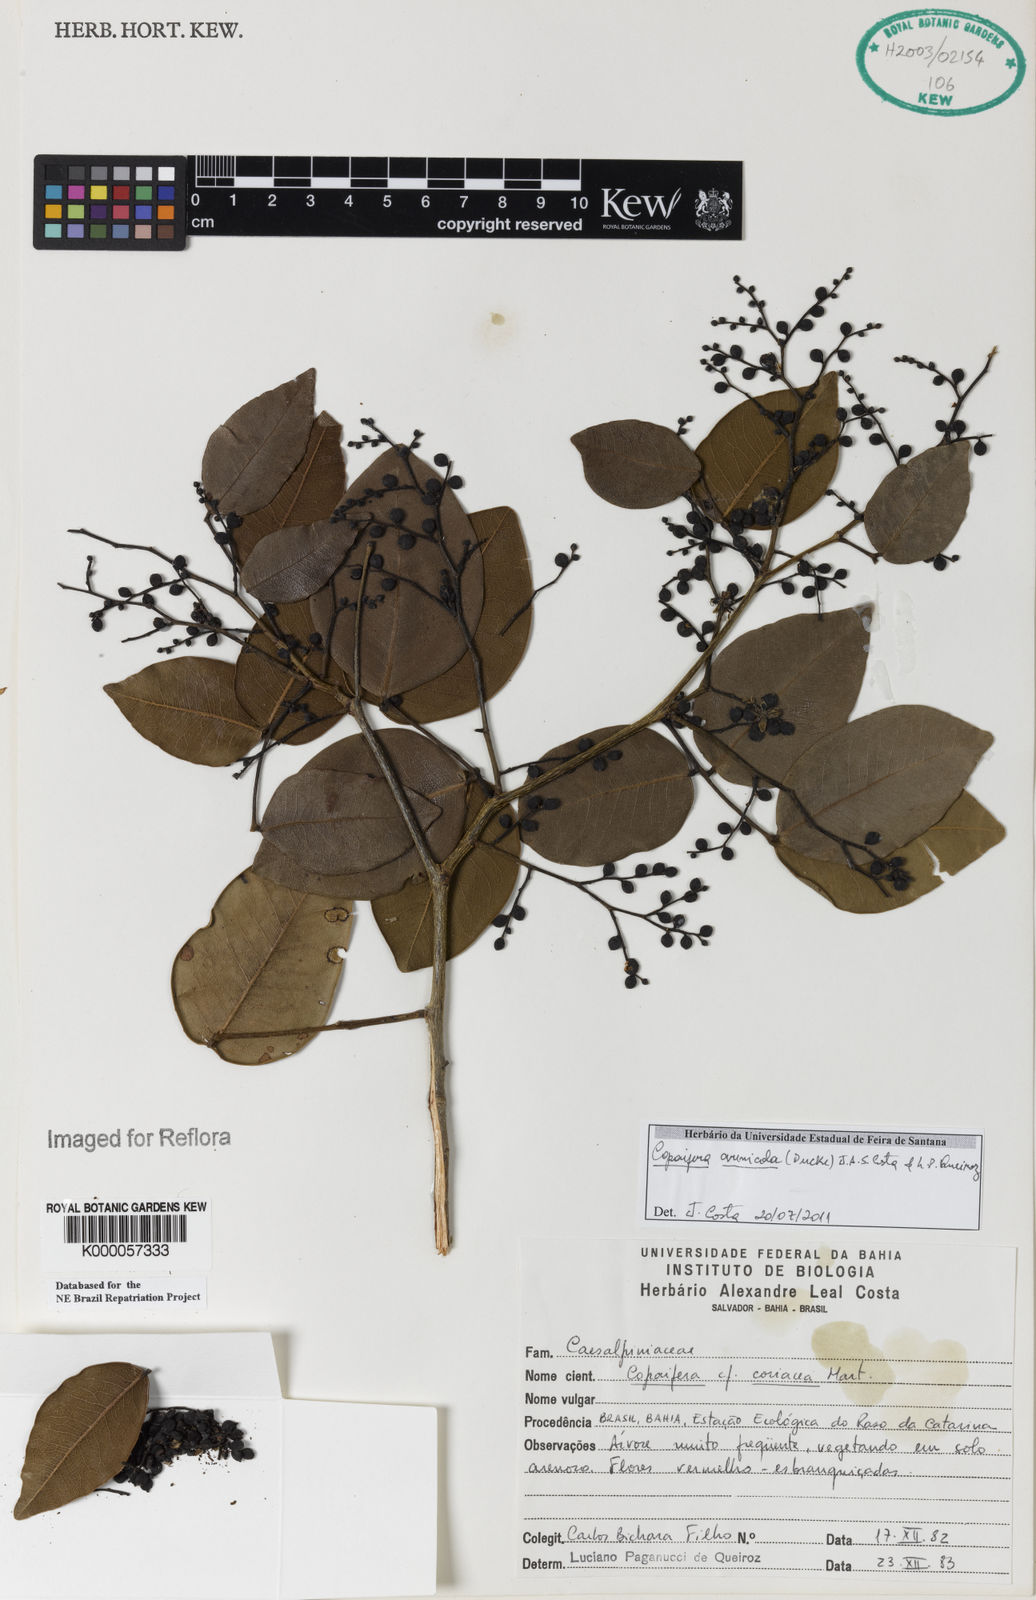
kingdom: Plantae
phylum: Tracheophyta
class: Magnoliopsida
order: Fabales
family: Fabaceae
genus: Copaifera
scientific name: Copaifera
